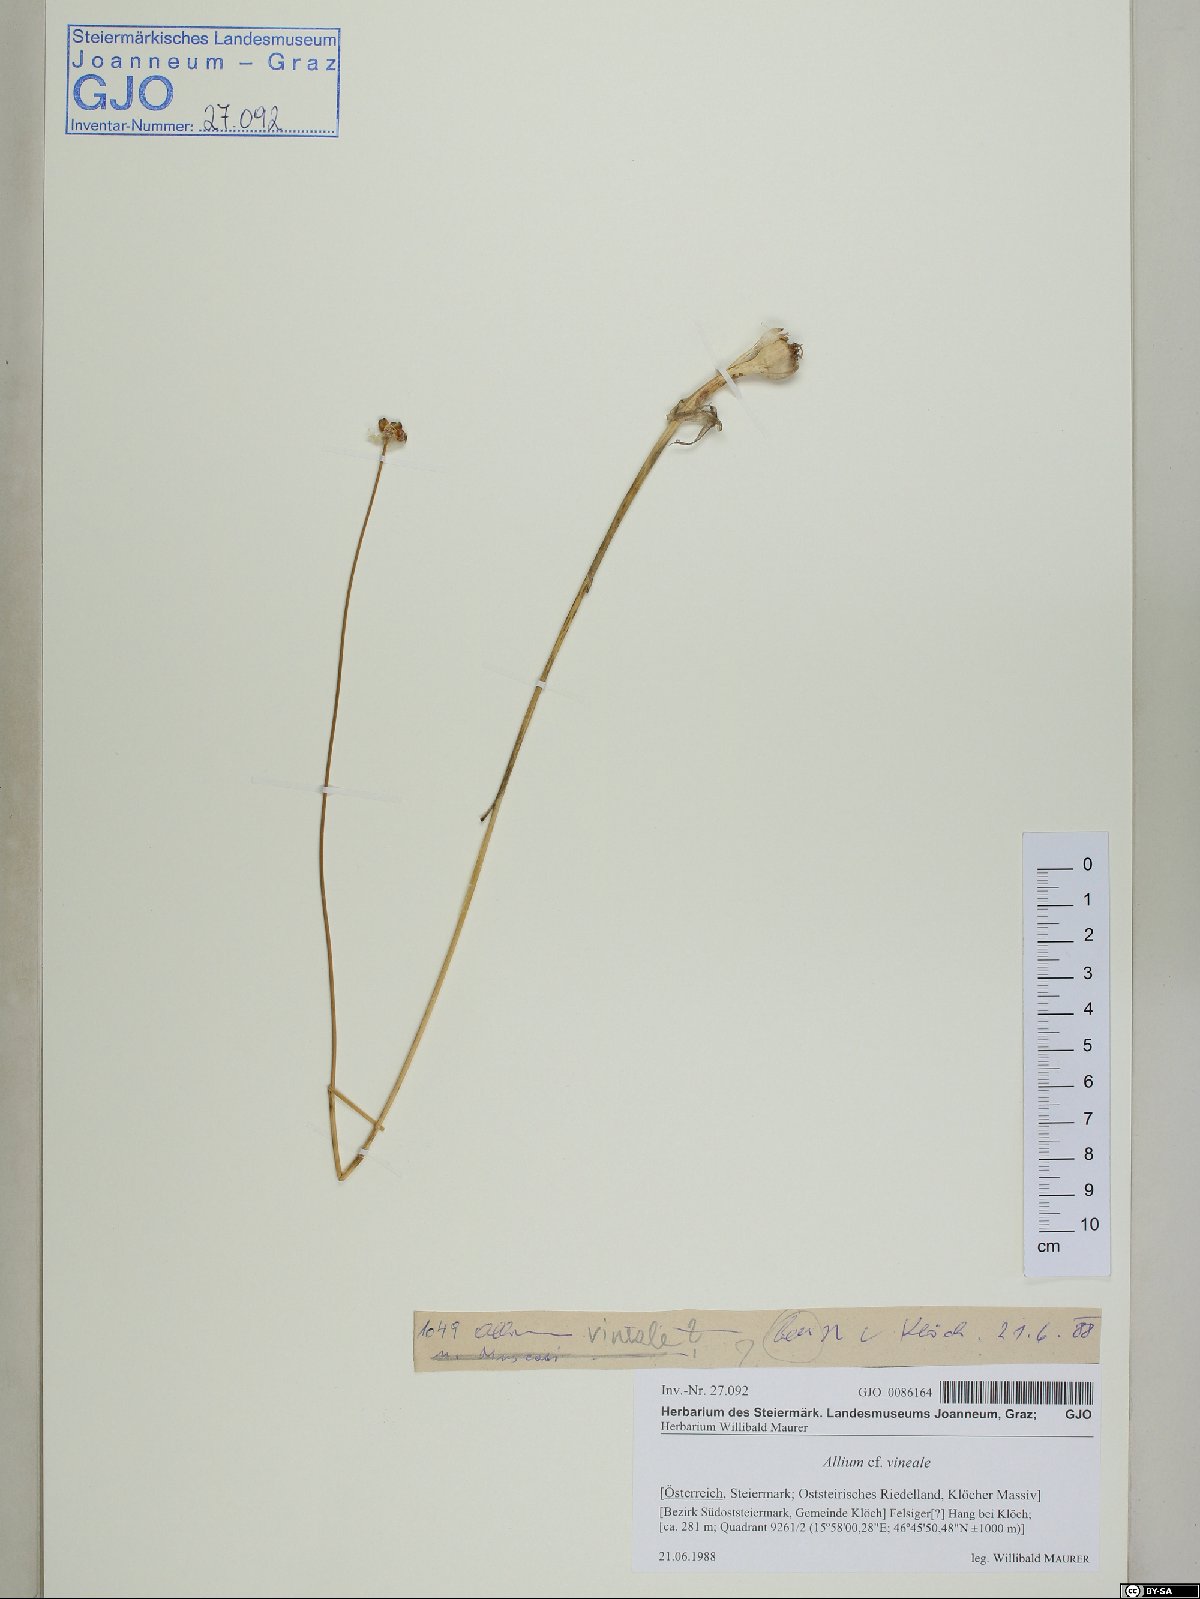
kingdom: Plantae
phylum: Tracheophyta
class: Liliopsida
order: Asparagales
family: Amaryllidaceae
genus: Allium
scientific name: Allium vineale
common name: Crow garlic
